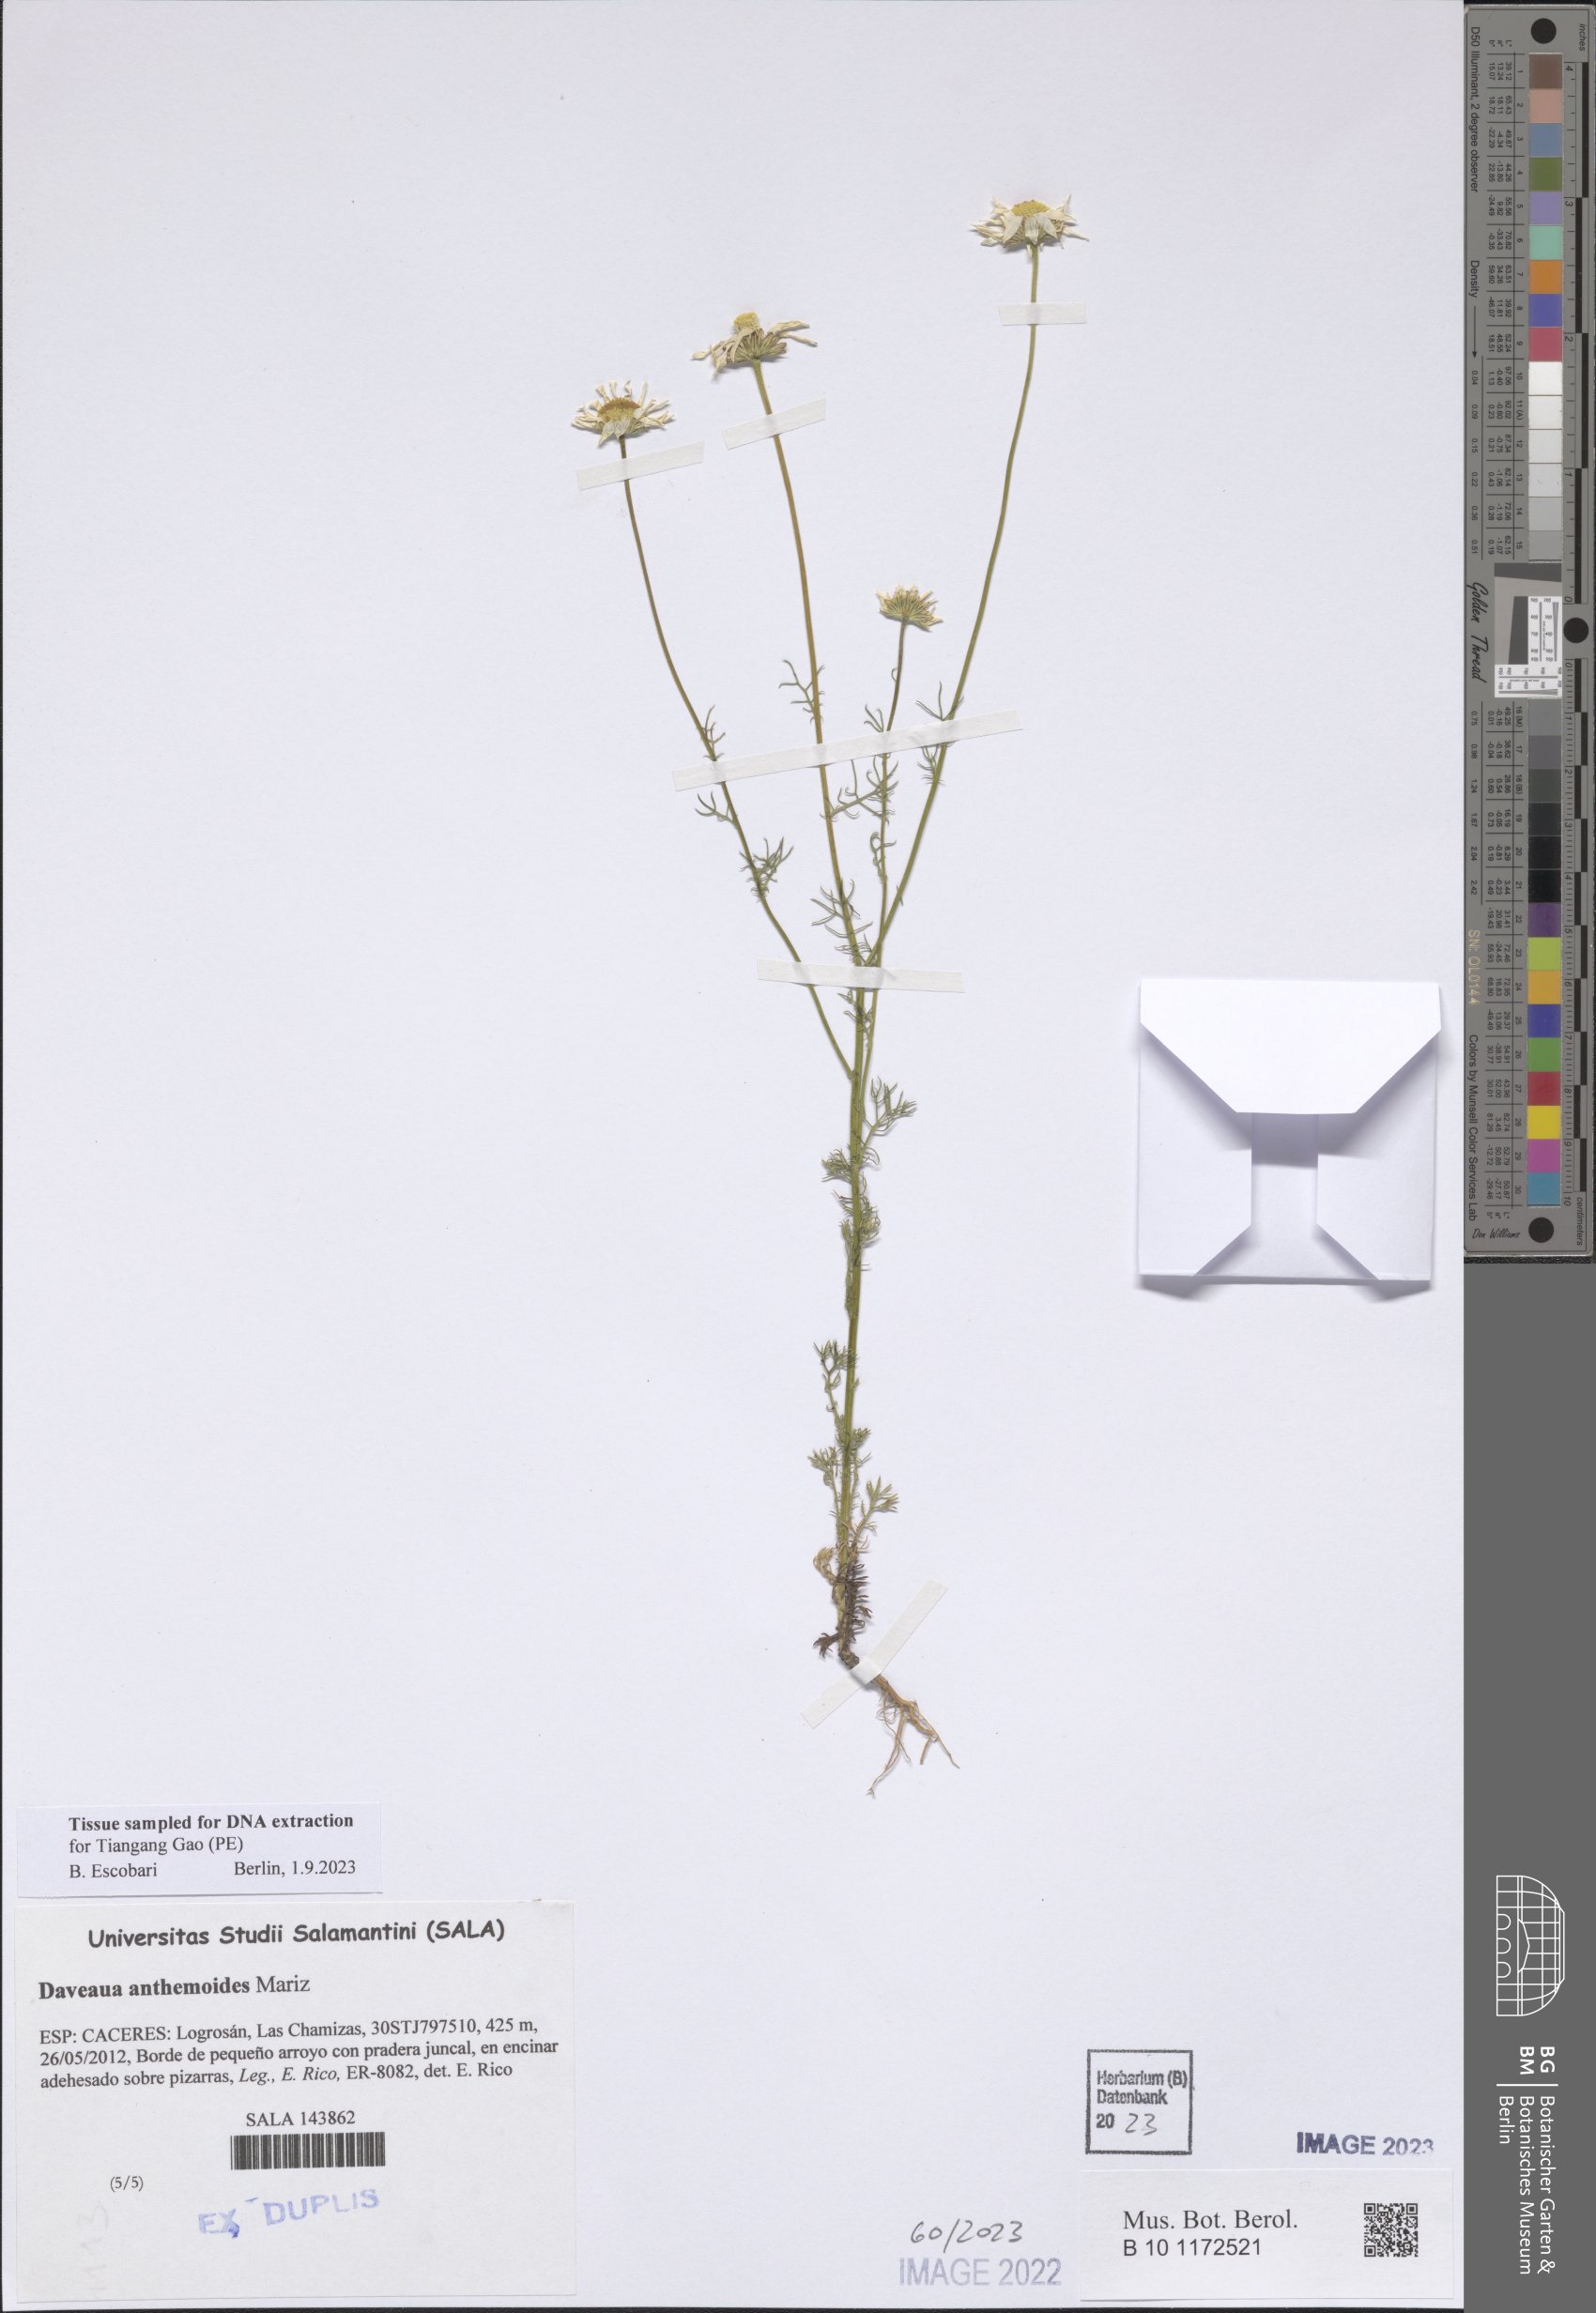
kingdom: Plantae
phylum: Tracheophyta
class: Magnoliopsida
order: Asterales
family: Asteraceae
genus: Daveaua
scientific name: Daveaua anthemoides
